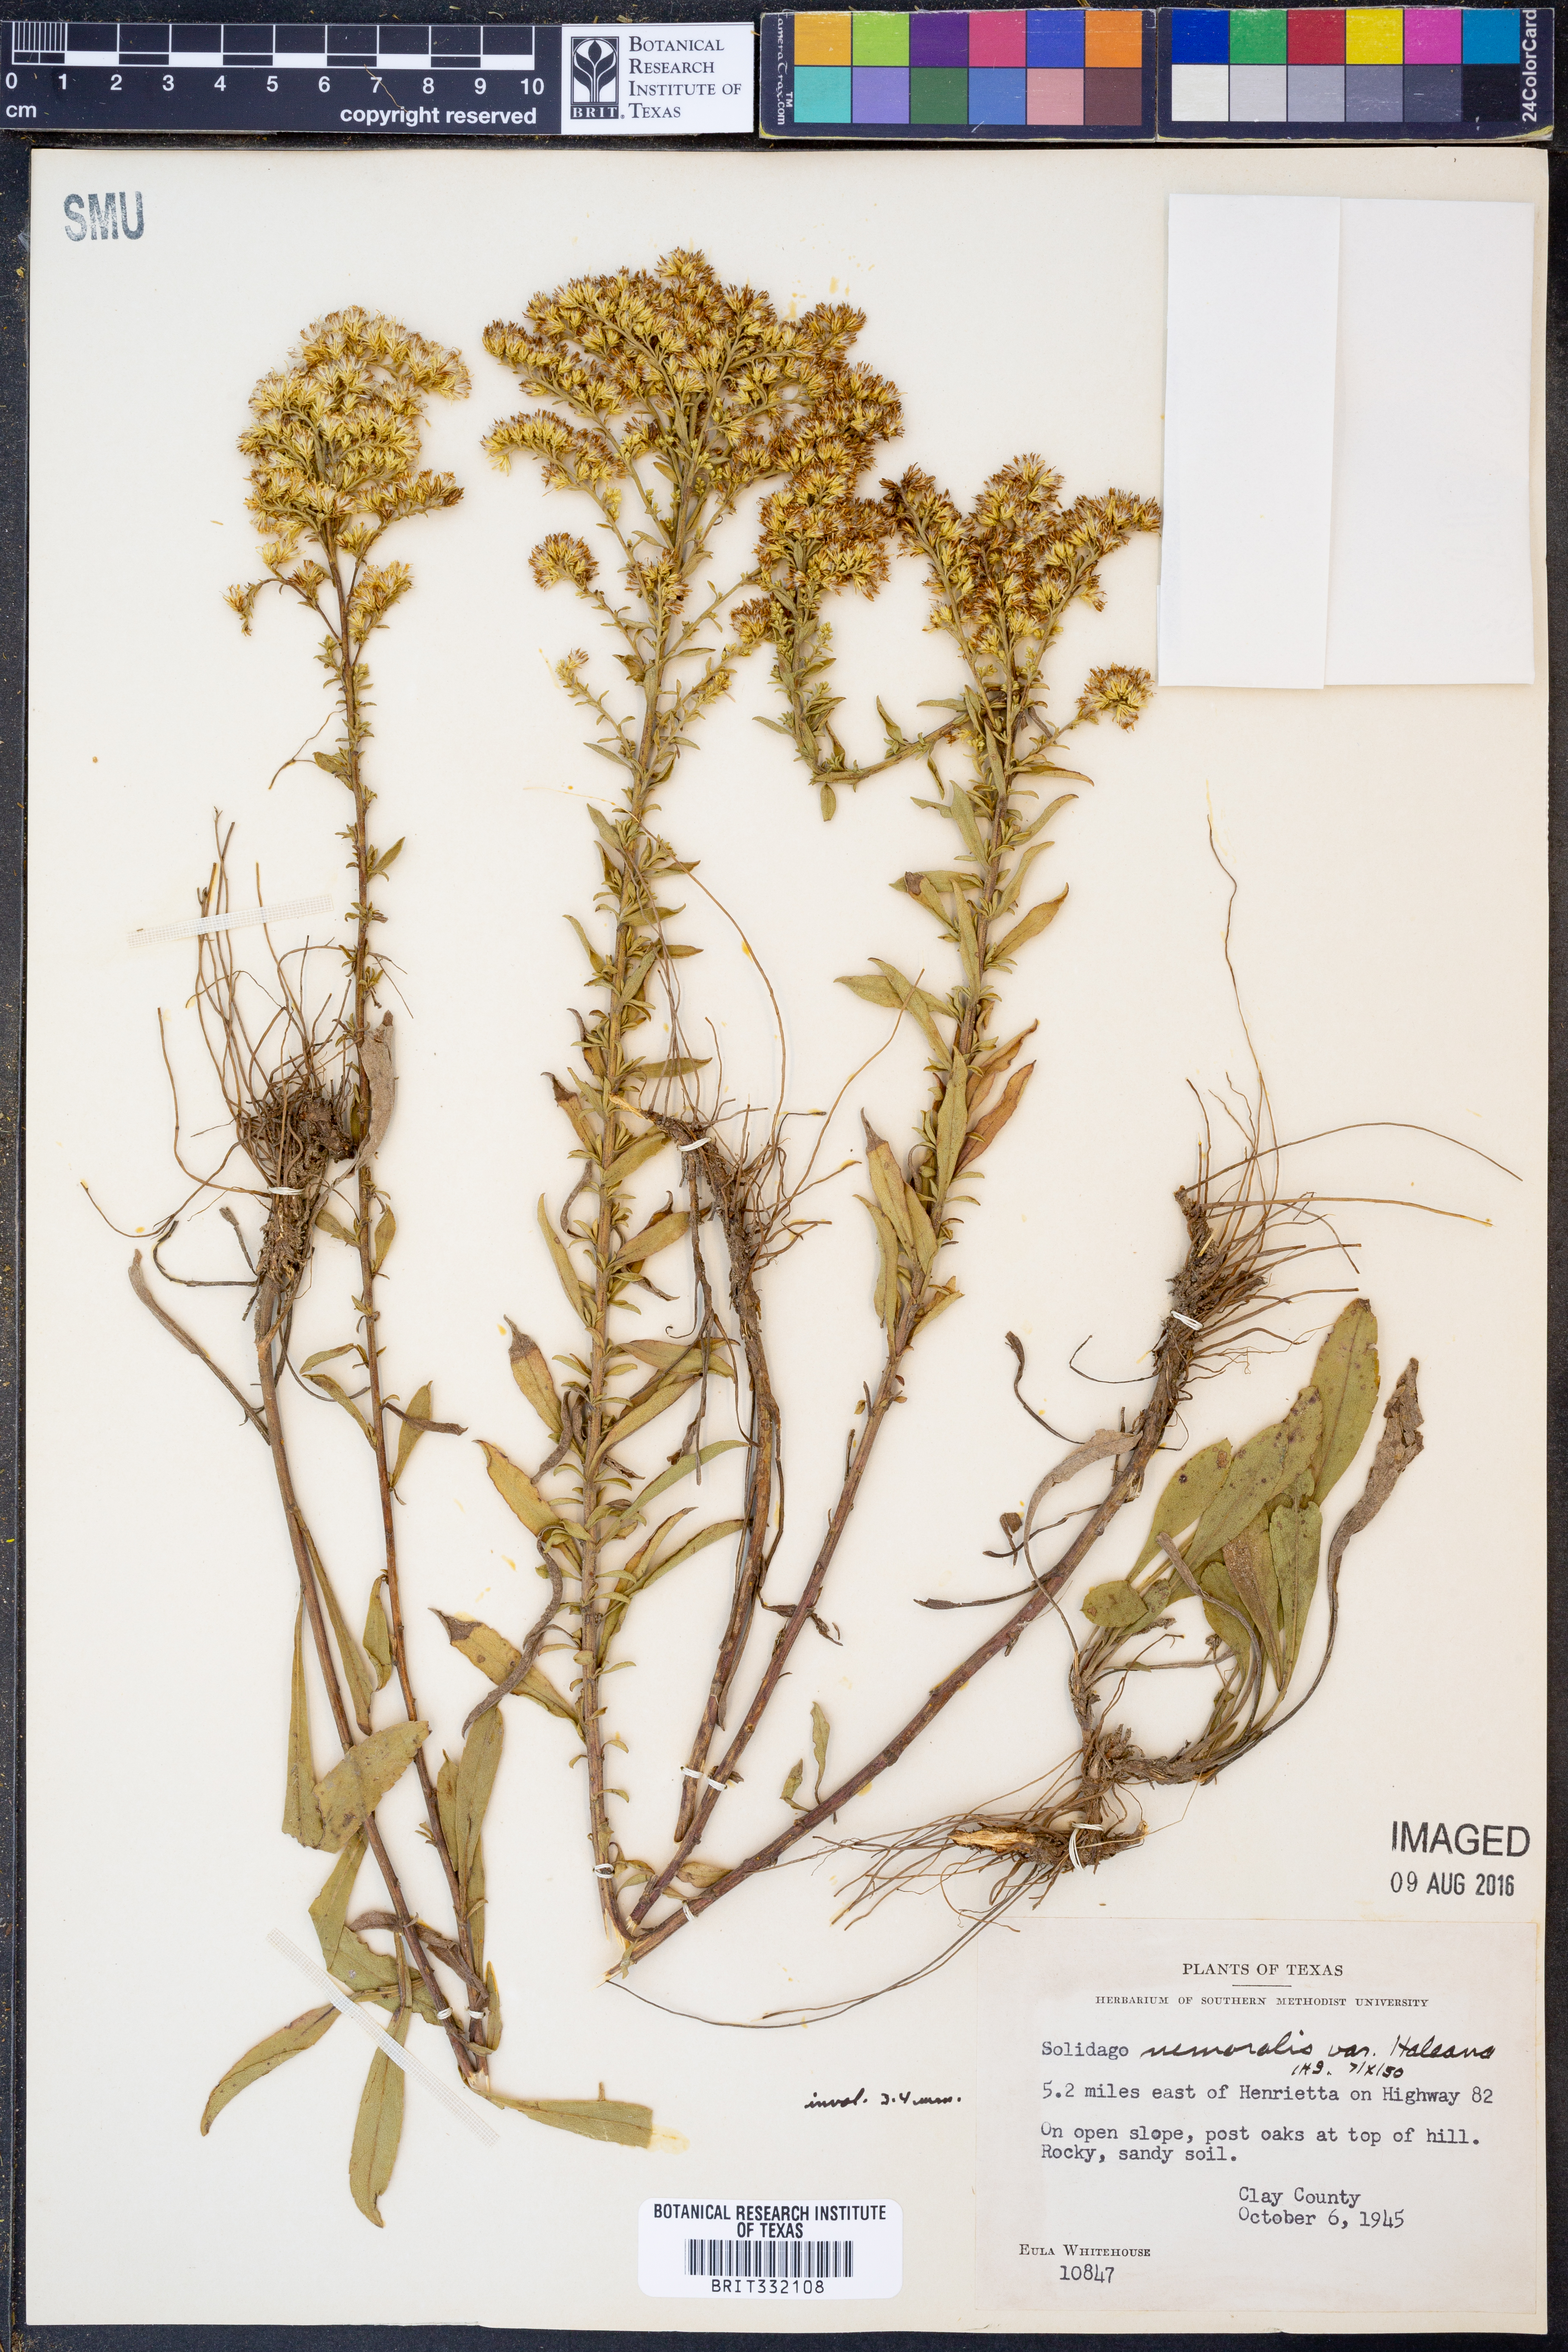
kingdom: Plantae
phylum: Tracheophyta
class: Magnoliopsida
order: Asterales
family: Asteraceae
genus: Solidago
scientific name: Solidago nemoralis
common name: Grey goldenrod
